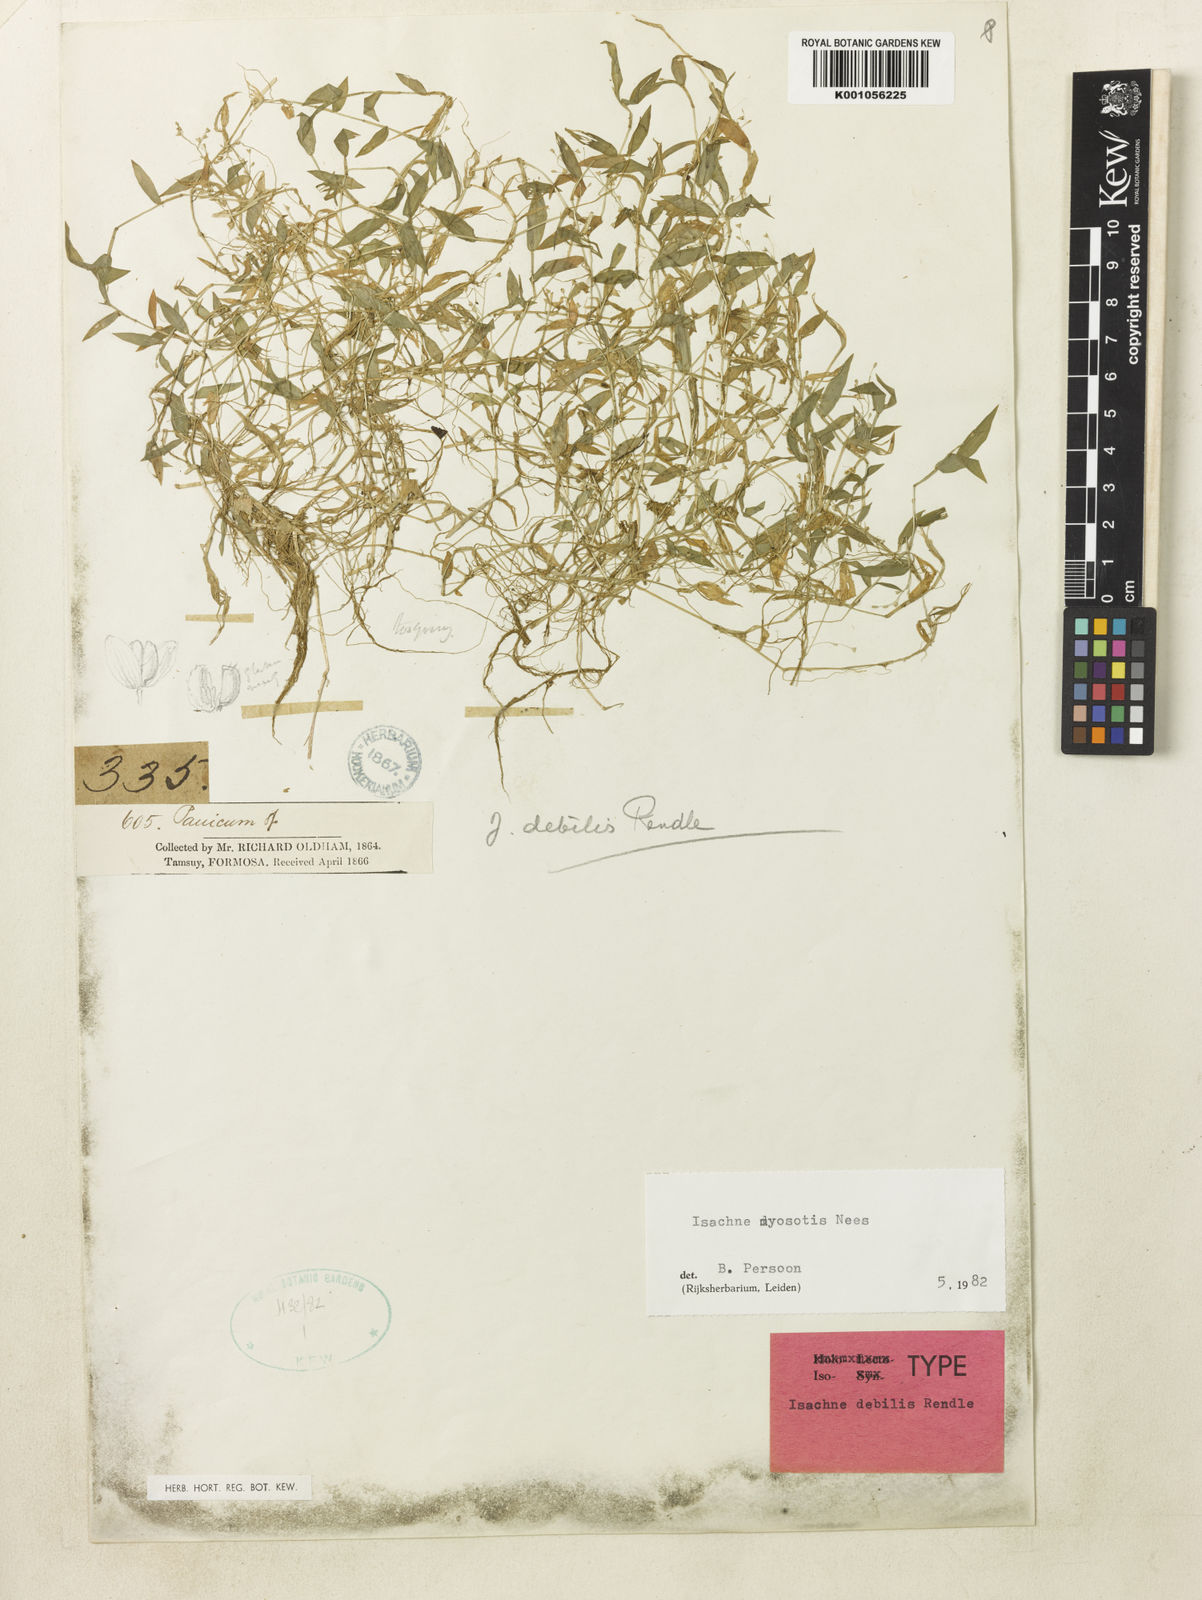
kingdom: Plantae
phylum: Tracheophyta
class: Liliopsida
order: Poales
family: Poaceae
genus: Isachne
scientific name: Isachne myosotis
